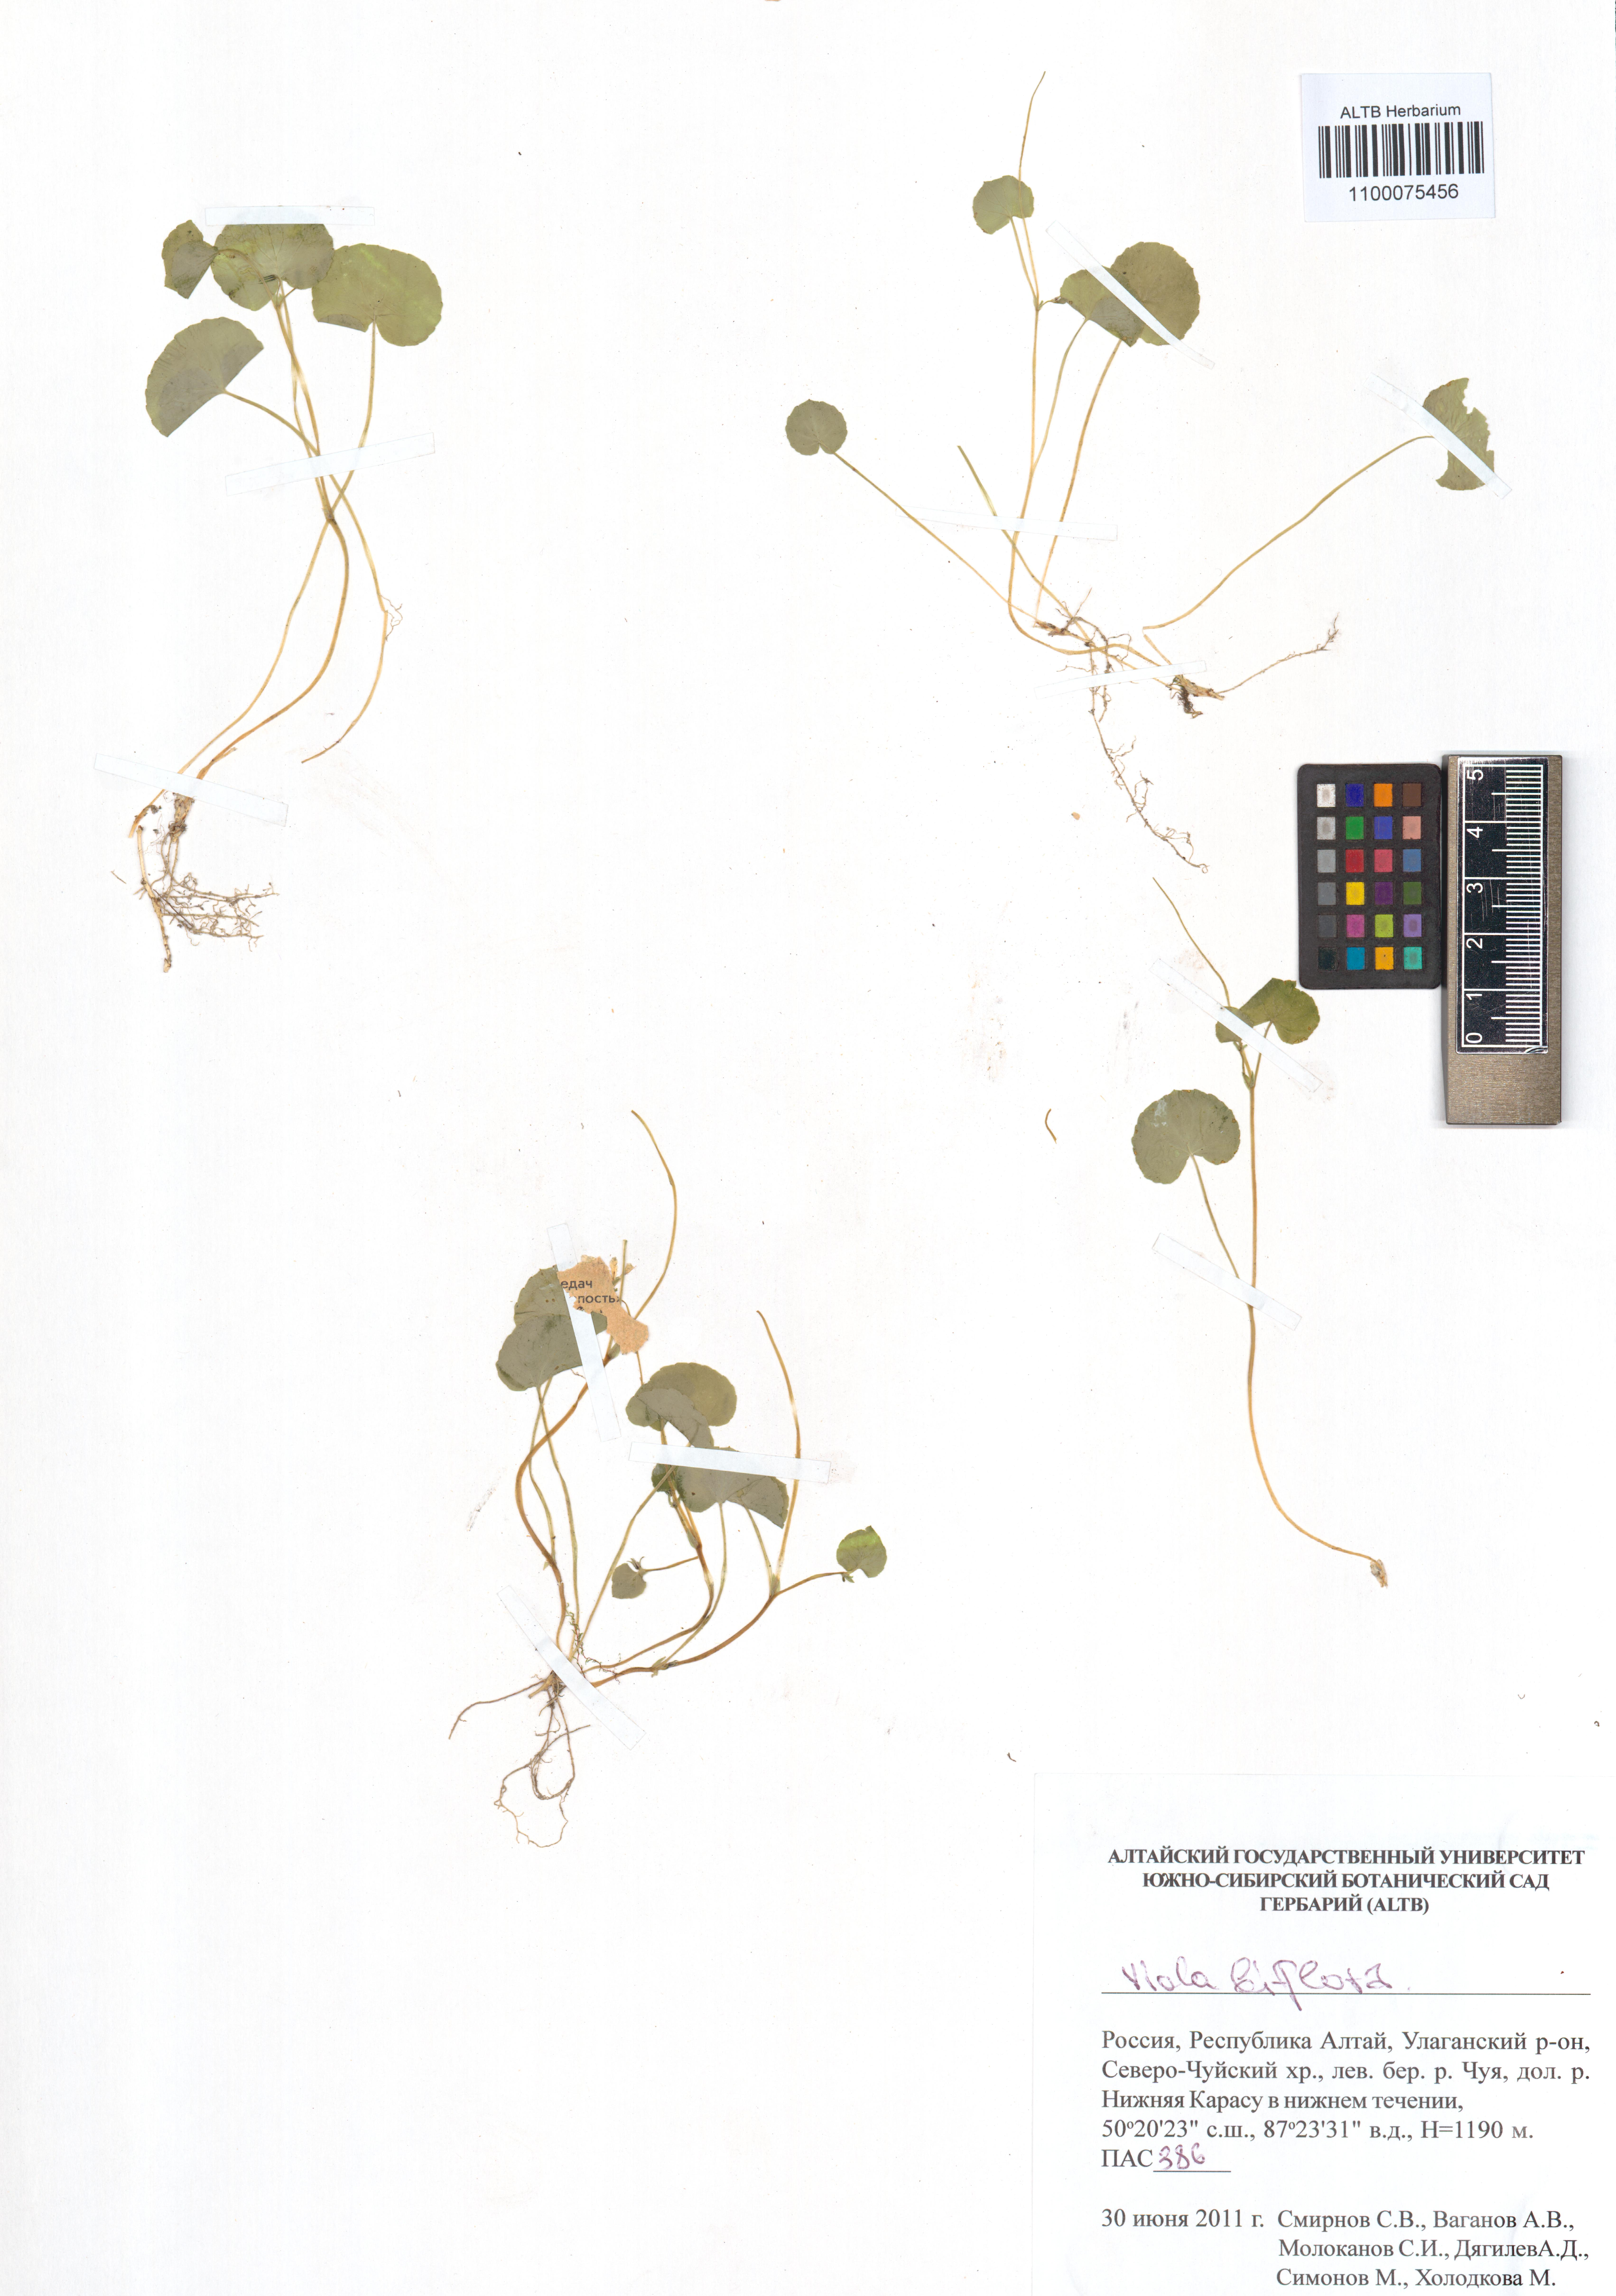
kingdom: Plantae
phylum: Tracheophyta
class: Magnoliopsida
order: Malpighiales
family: Violaceae
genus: Viola
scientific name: Viola biflora
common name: Alpine yellow violet
